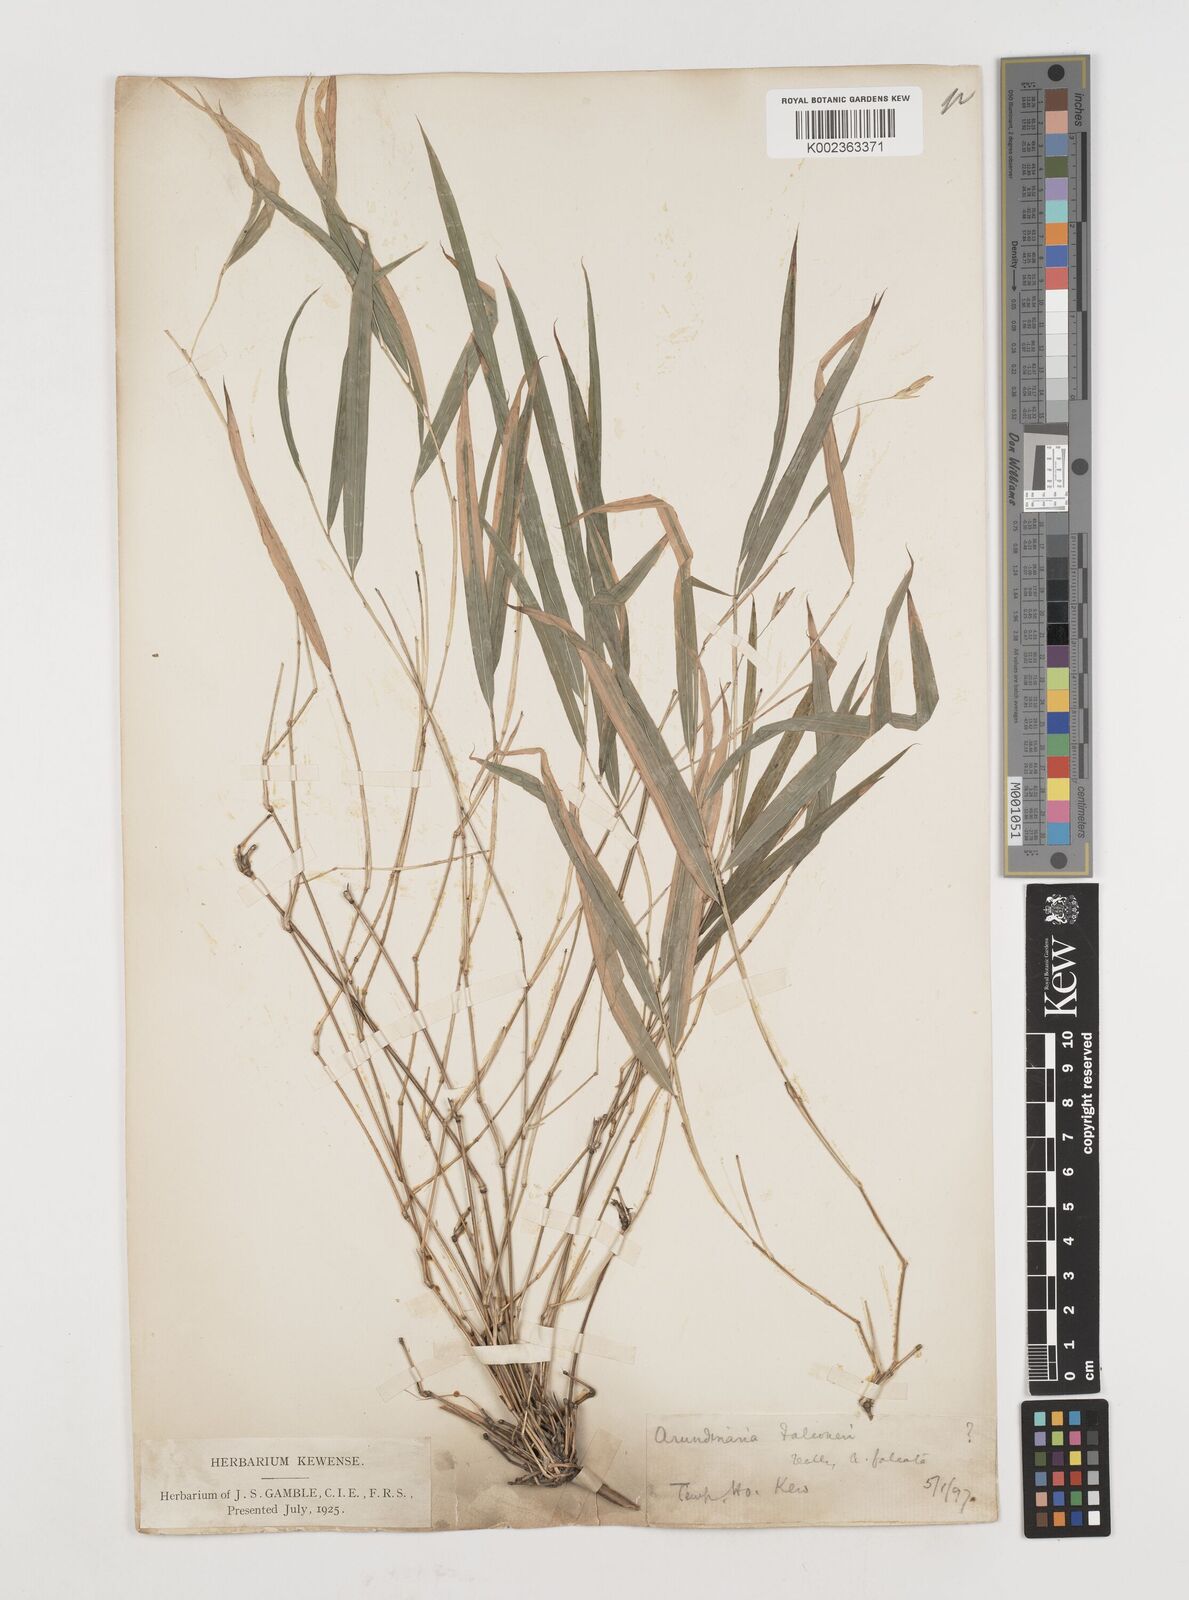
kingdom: Plantae
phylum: Tracheophyta
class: Liliopsida
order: Poales
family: Poaceae
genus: Himalayacalamus
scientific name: Himalayacalamus falconeri
